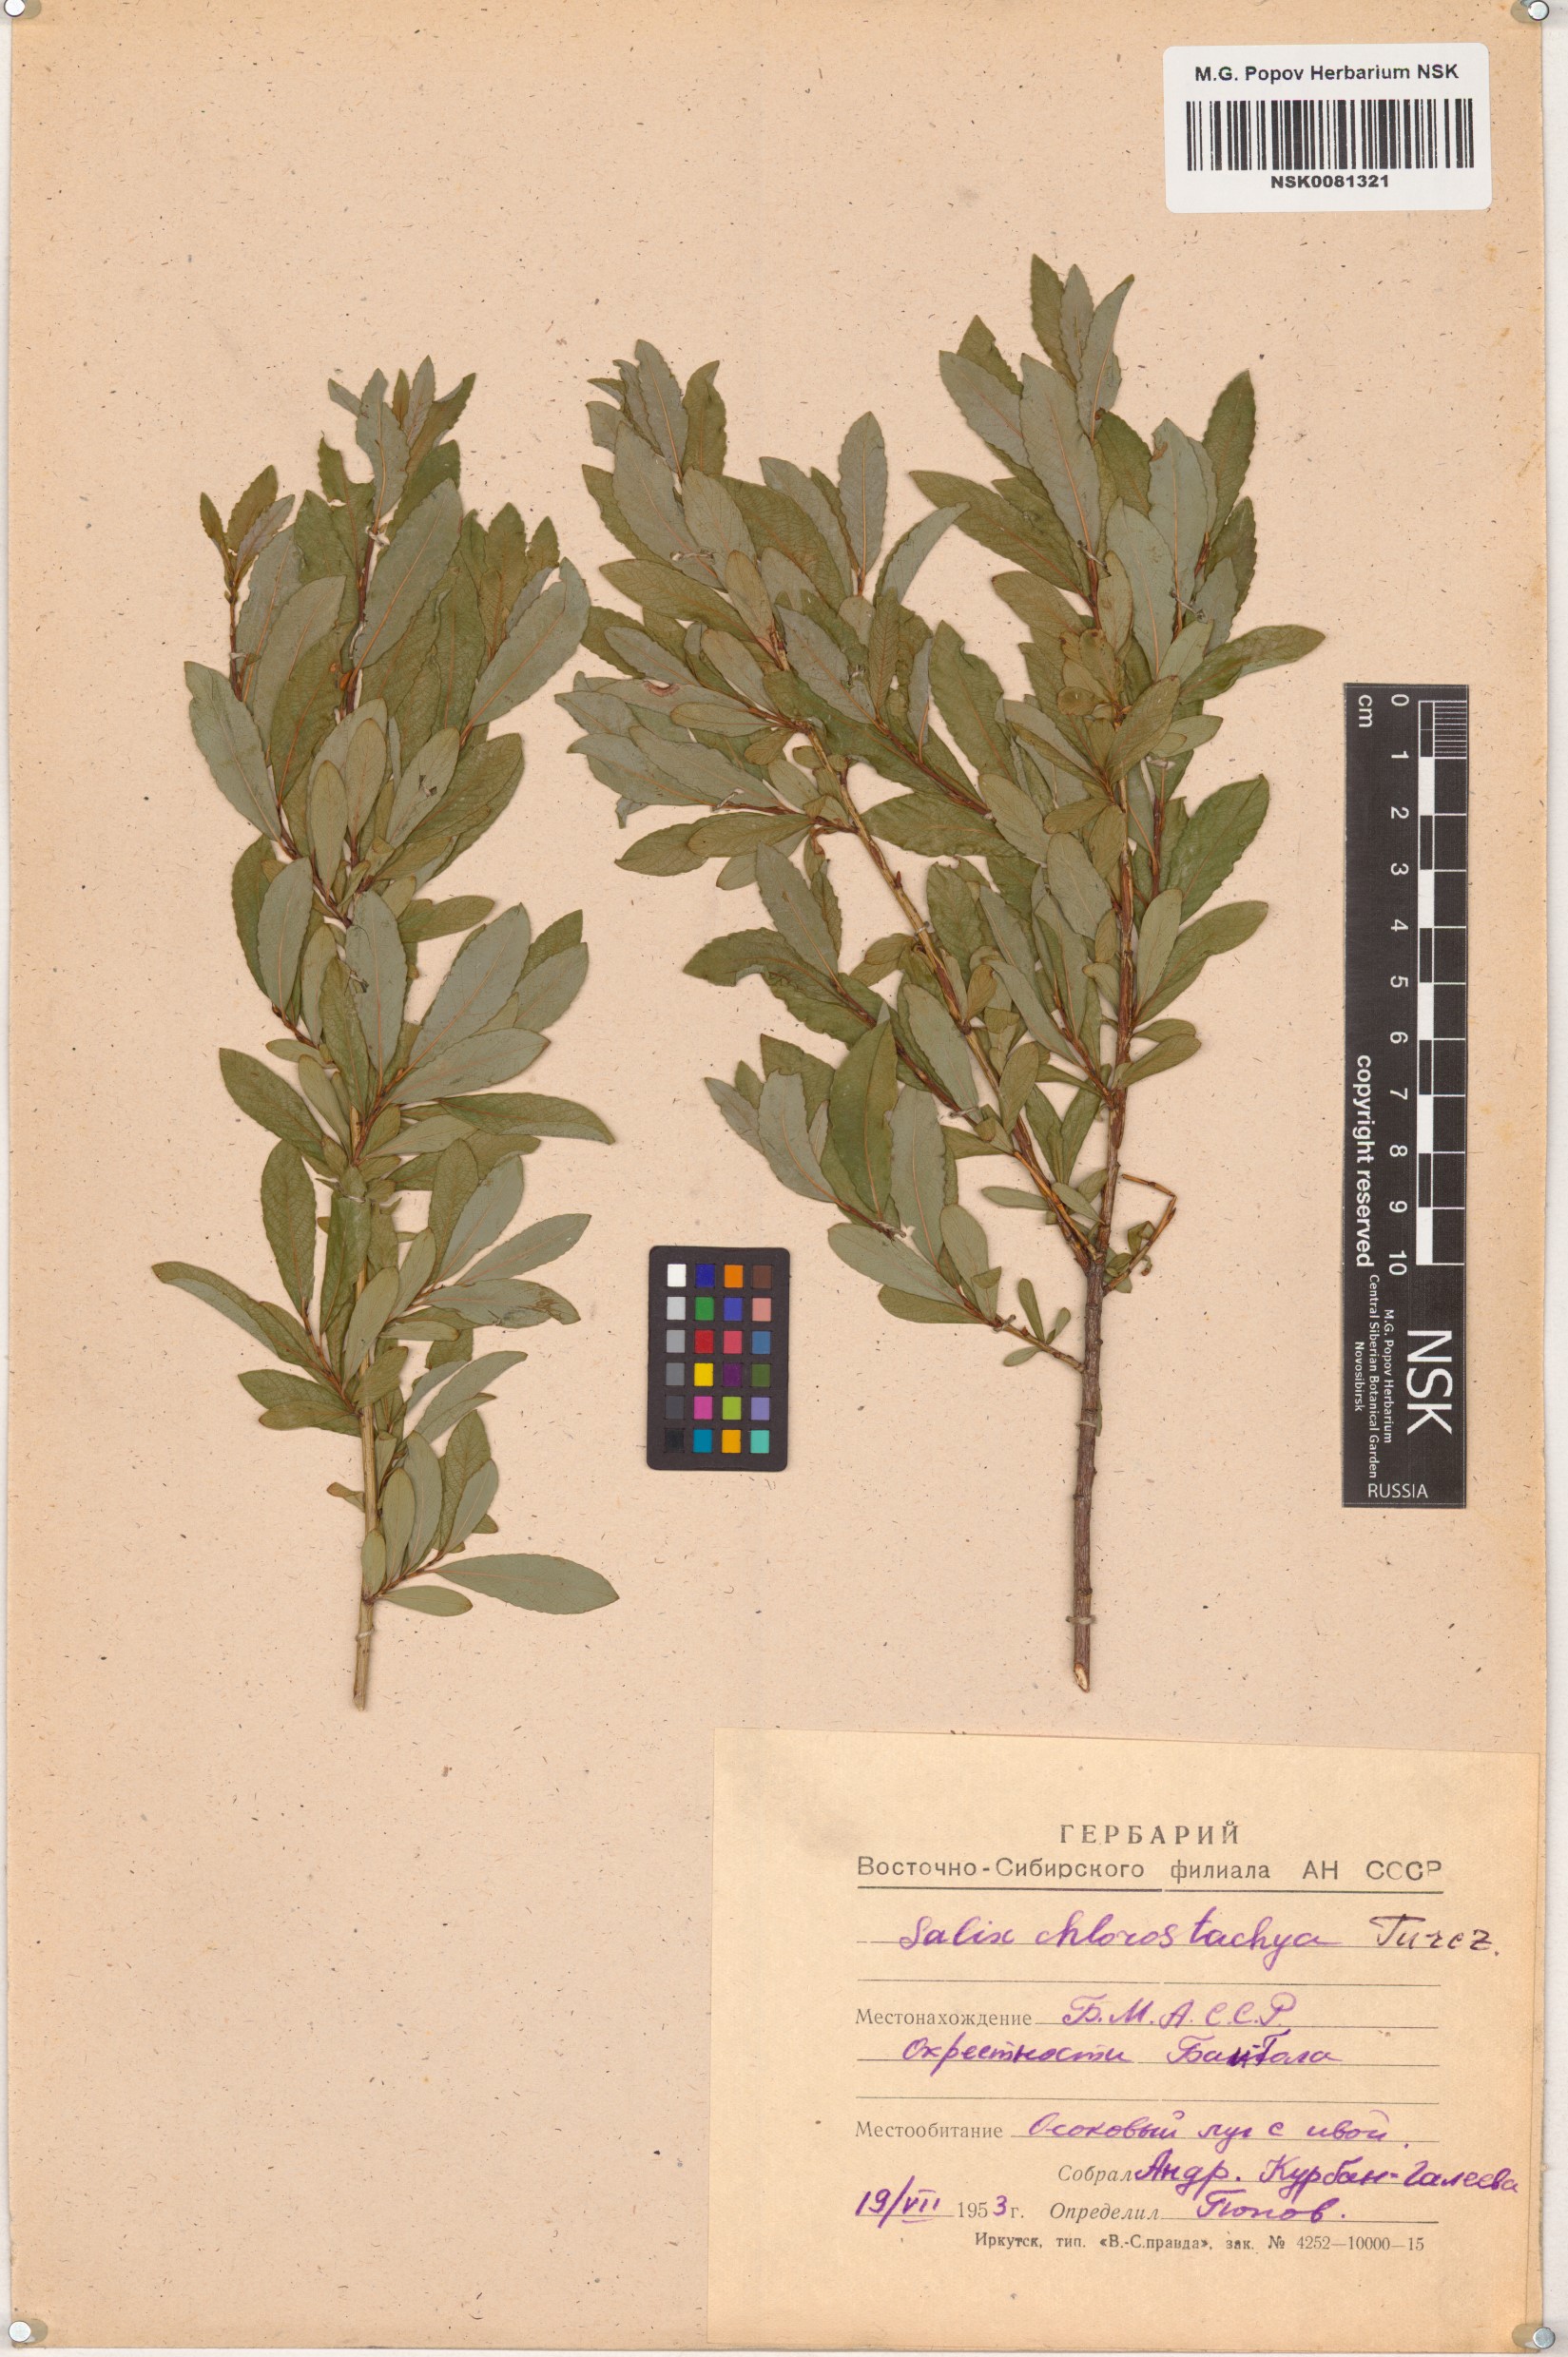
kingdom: Plantae
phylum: Tracheophyta
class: Magnoliopsida
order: Malpighiales
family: Salicaceae
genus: Salix
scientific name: Salix rhamnifolia
